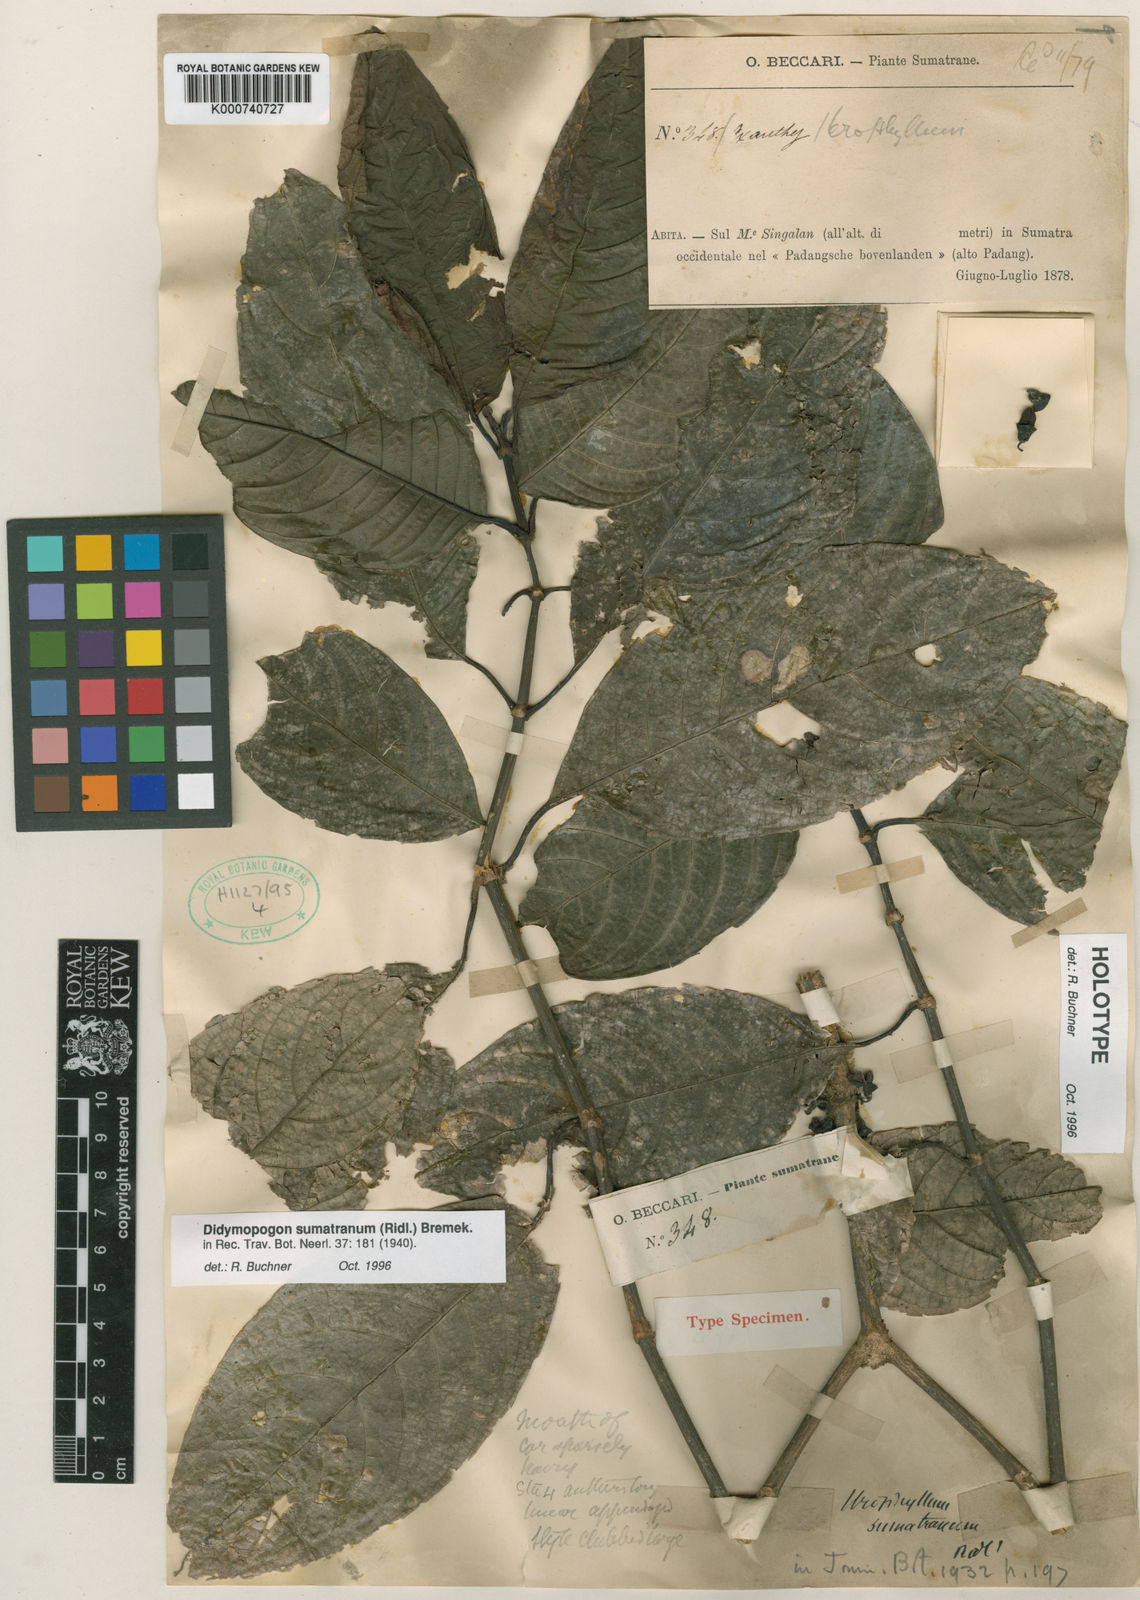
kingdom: Plantae
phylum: Tracheophyta
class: Magnoliopsida
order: Gentianales
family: Rubiaceae
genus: Didymopogon
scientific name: Didymopogon sumatranum
